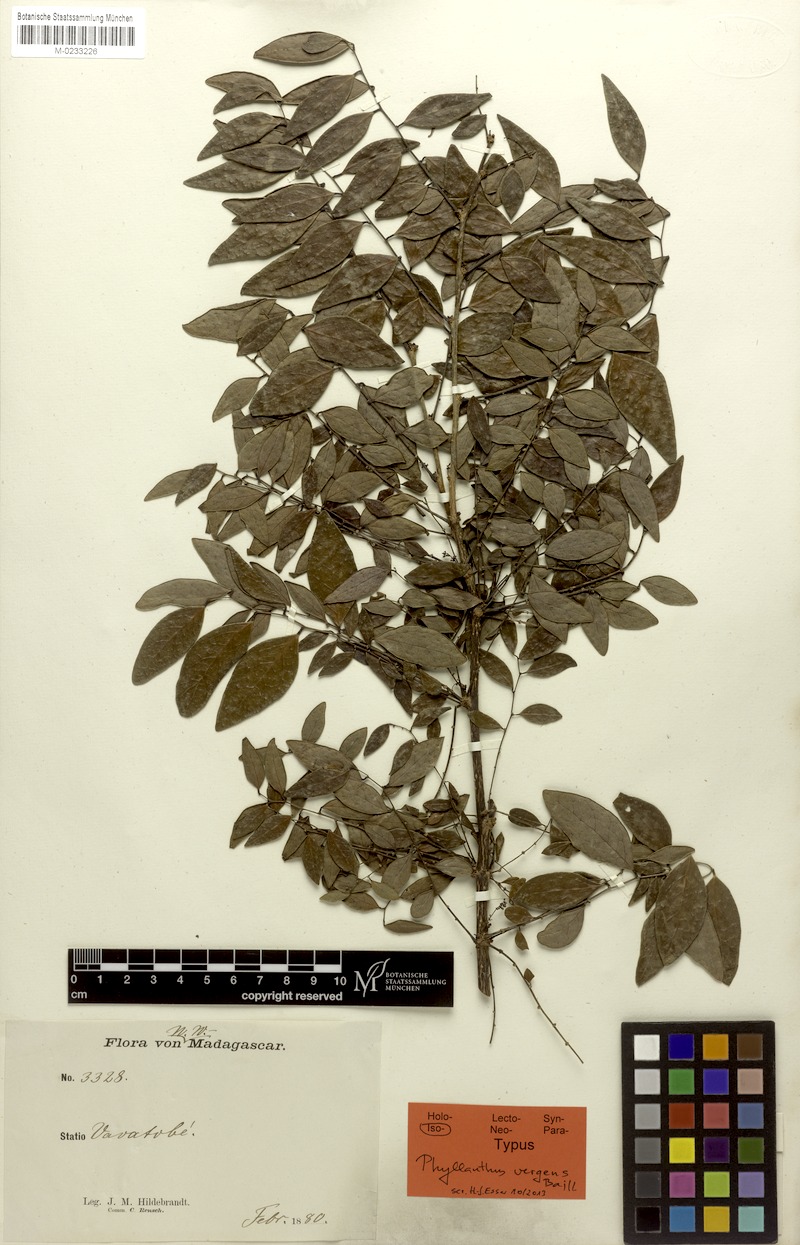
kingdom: Plantae
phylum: Tracheophyta
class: Magnoliopsida
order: Malpighiales
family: Phyllanthaceae
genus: Phyllanthus
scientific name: Phyllanthus vergens
